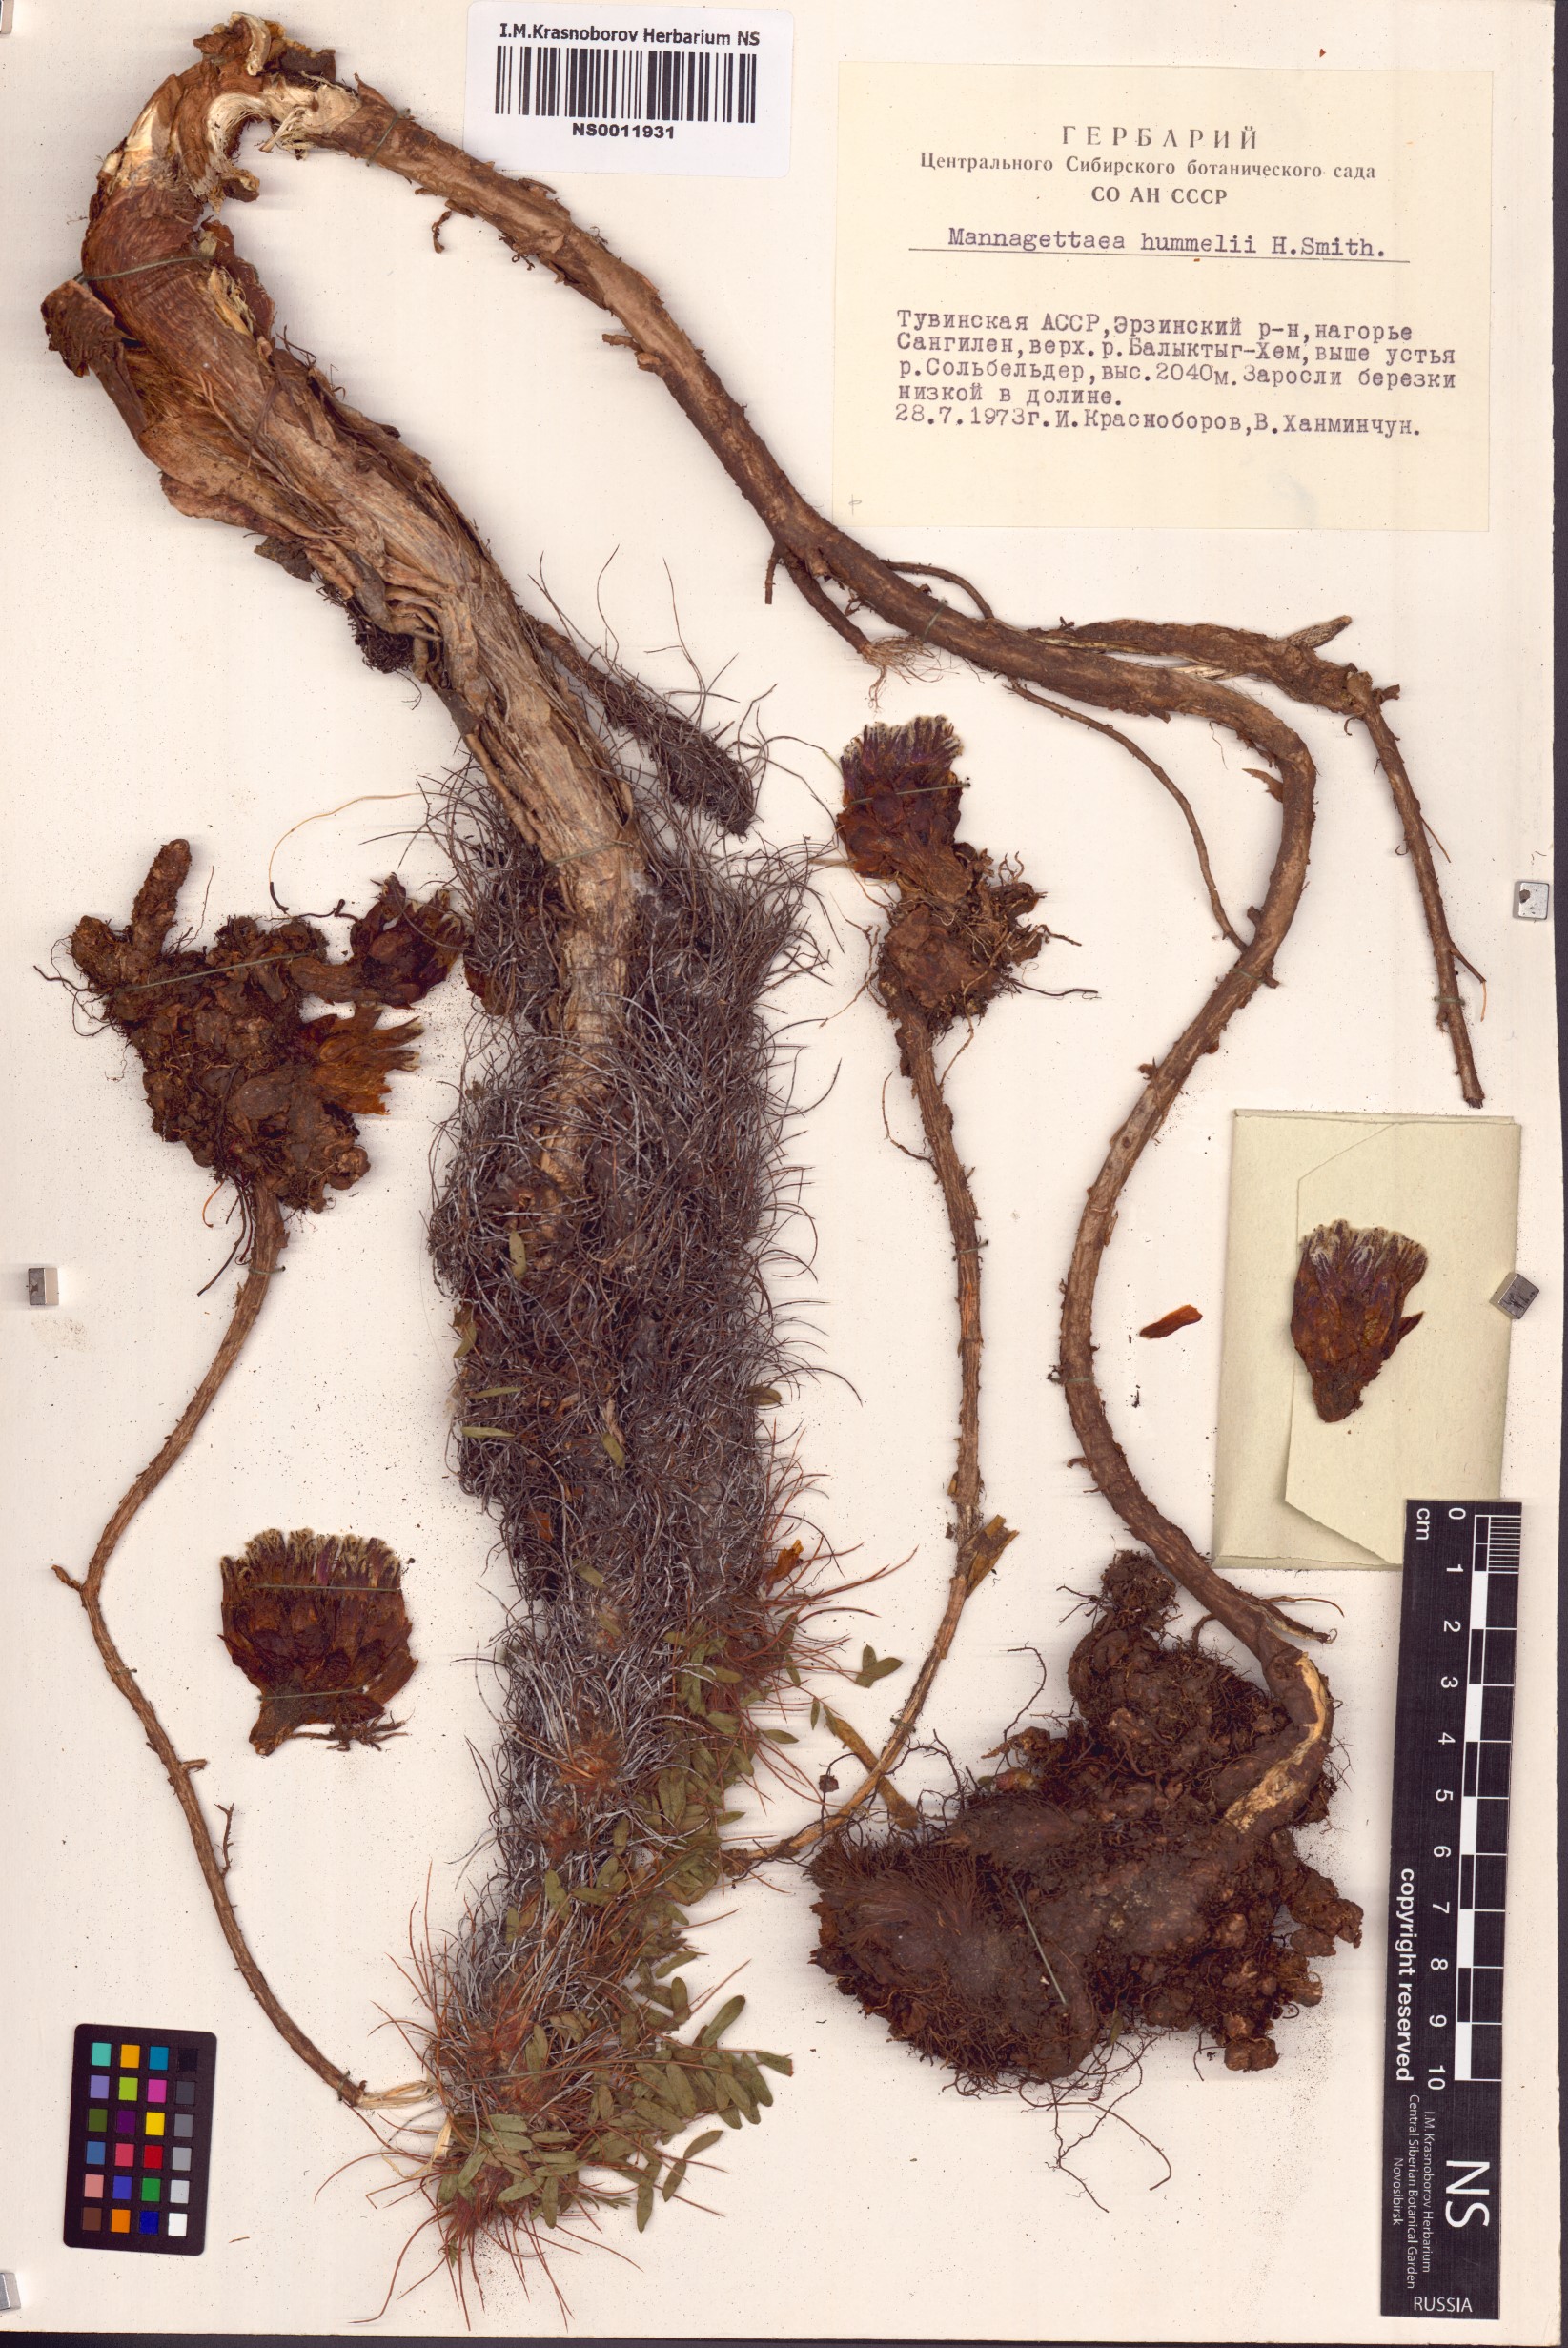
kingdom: Plantae
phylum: Tracheophyta
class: Magnoliopsida
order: Lamiales
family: Orobanchaceae
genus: Mannagettaea
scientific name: Mannagettaea hummelii
